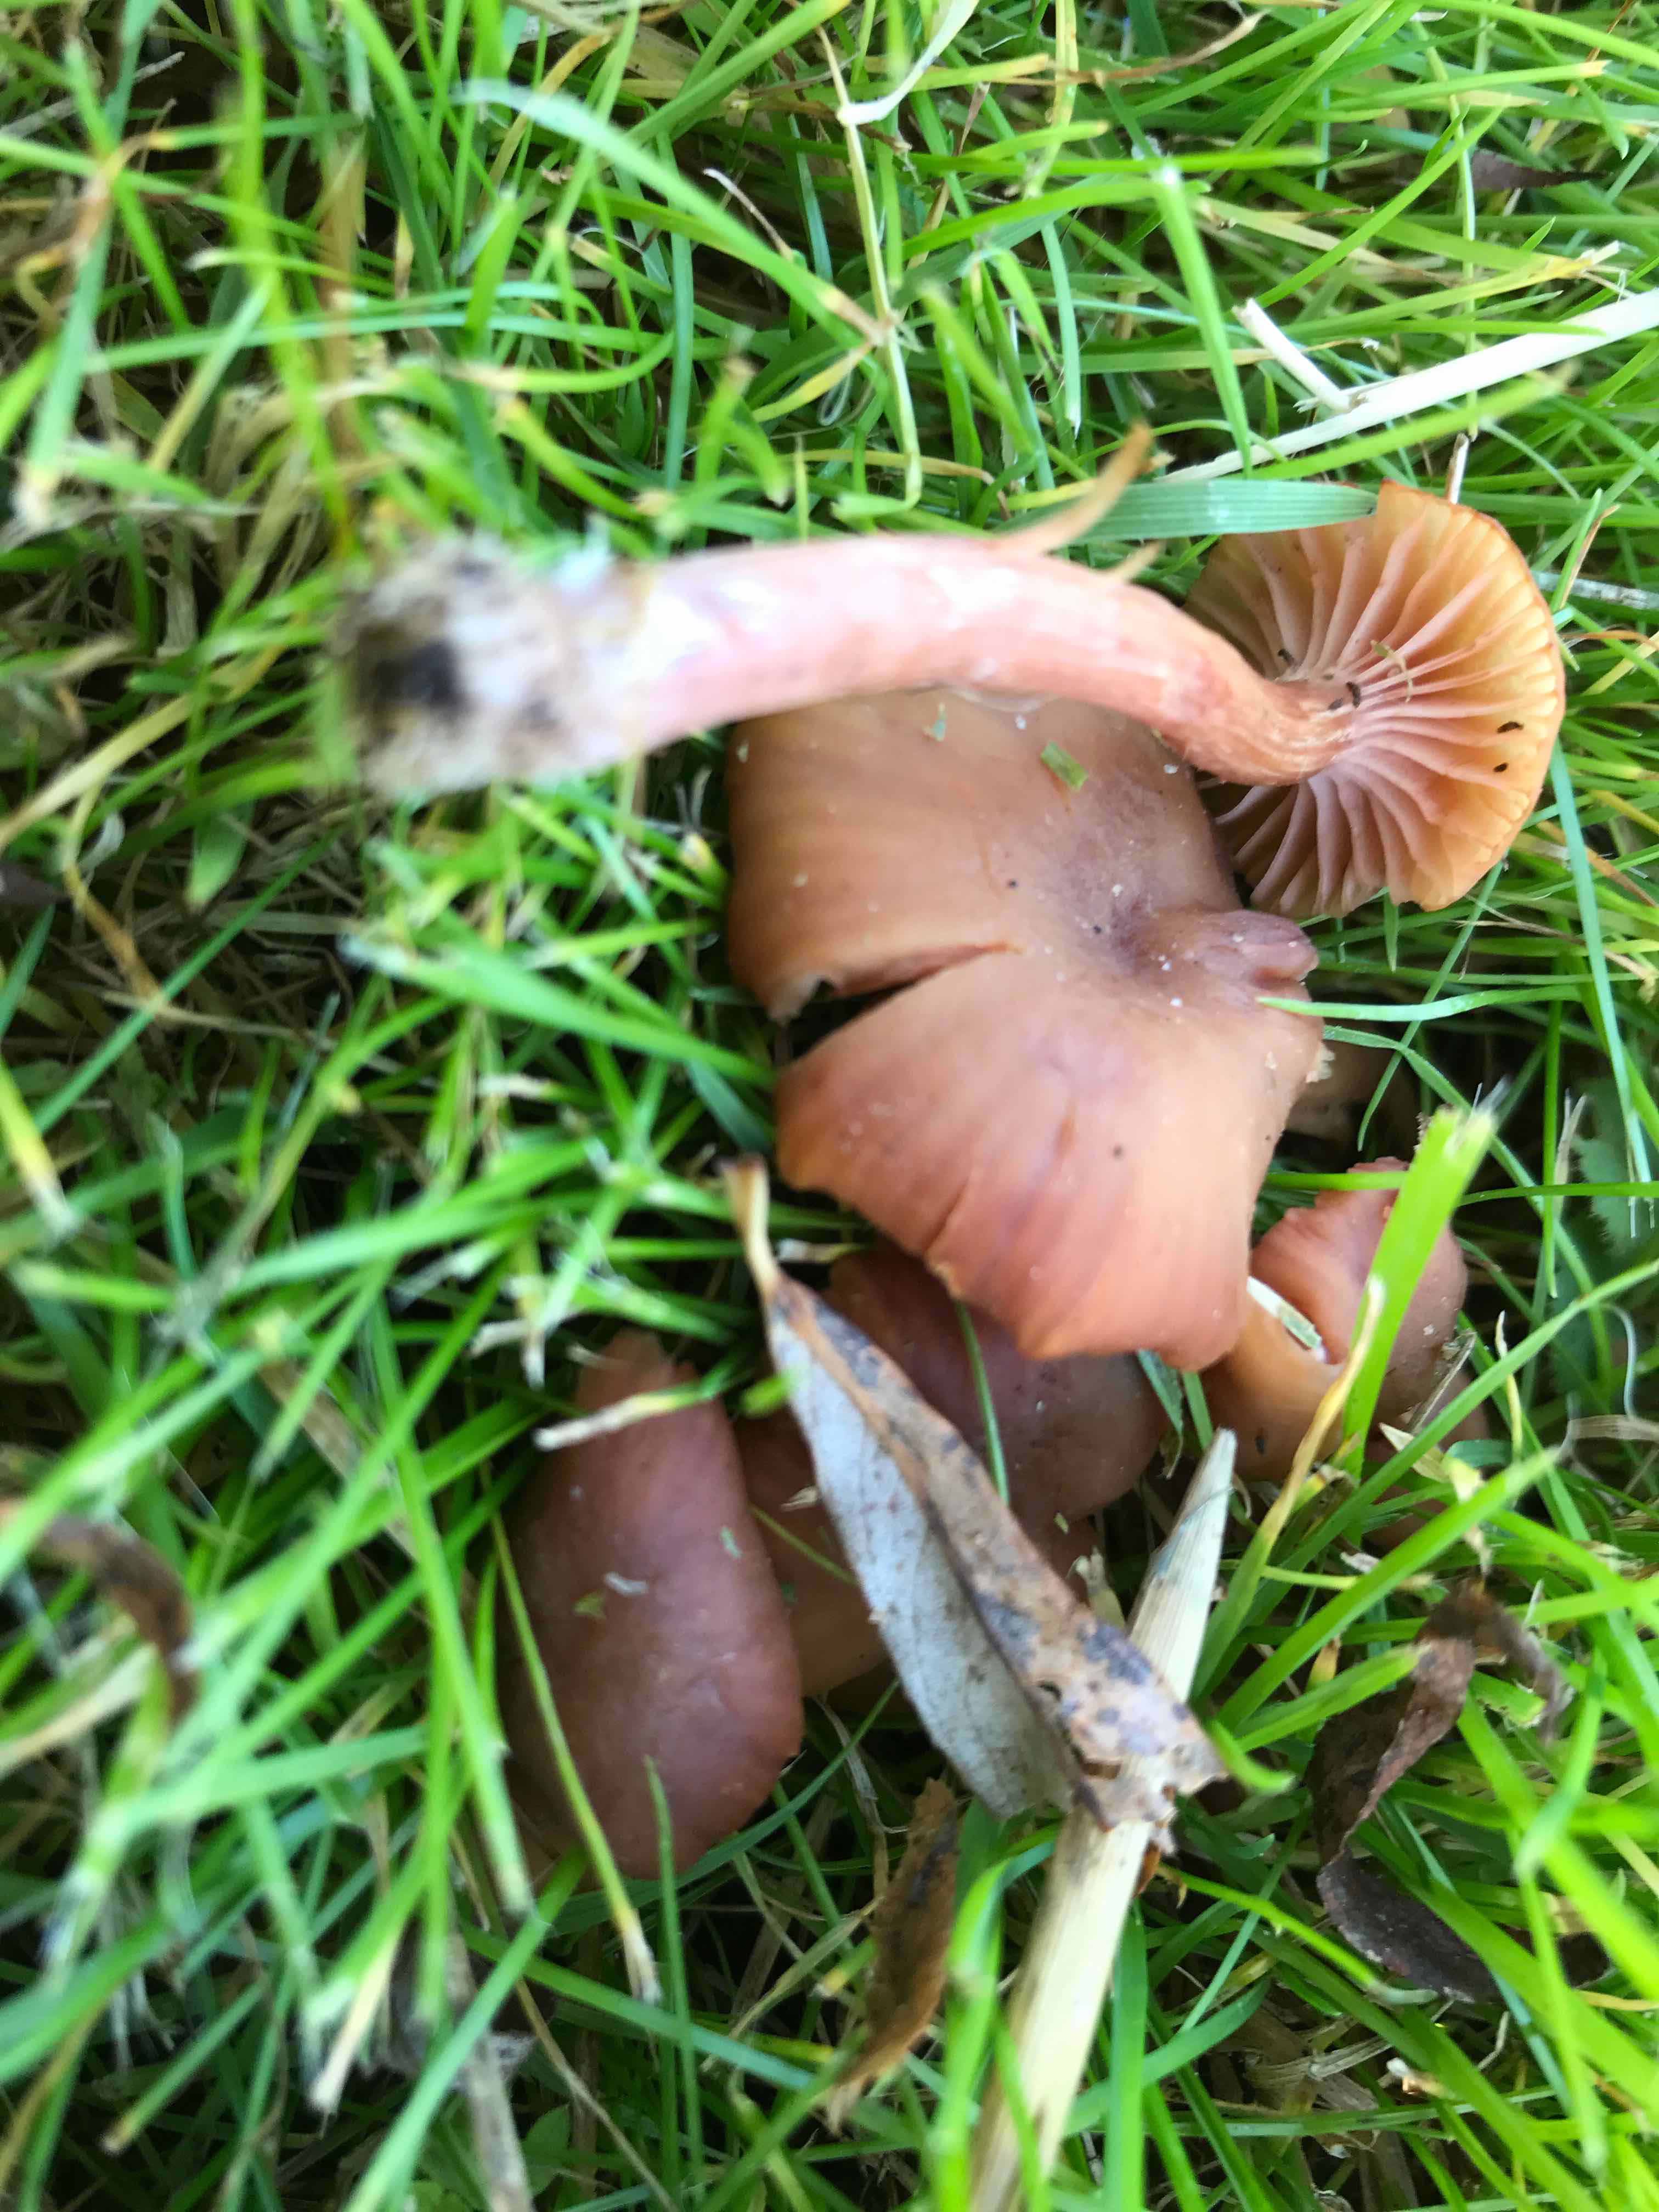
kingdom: Fungi
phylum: Basidiomycota
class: Agaricomycetes
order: Agaricales
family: Hydnangiaceae
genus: Laccaria
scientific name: Laccaria laccata
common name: rød ametysthat
